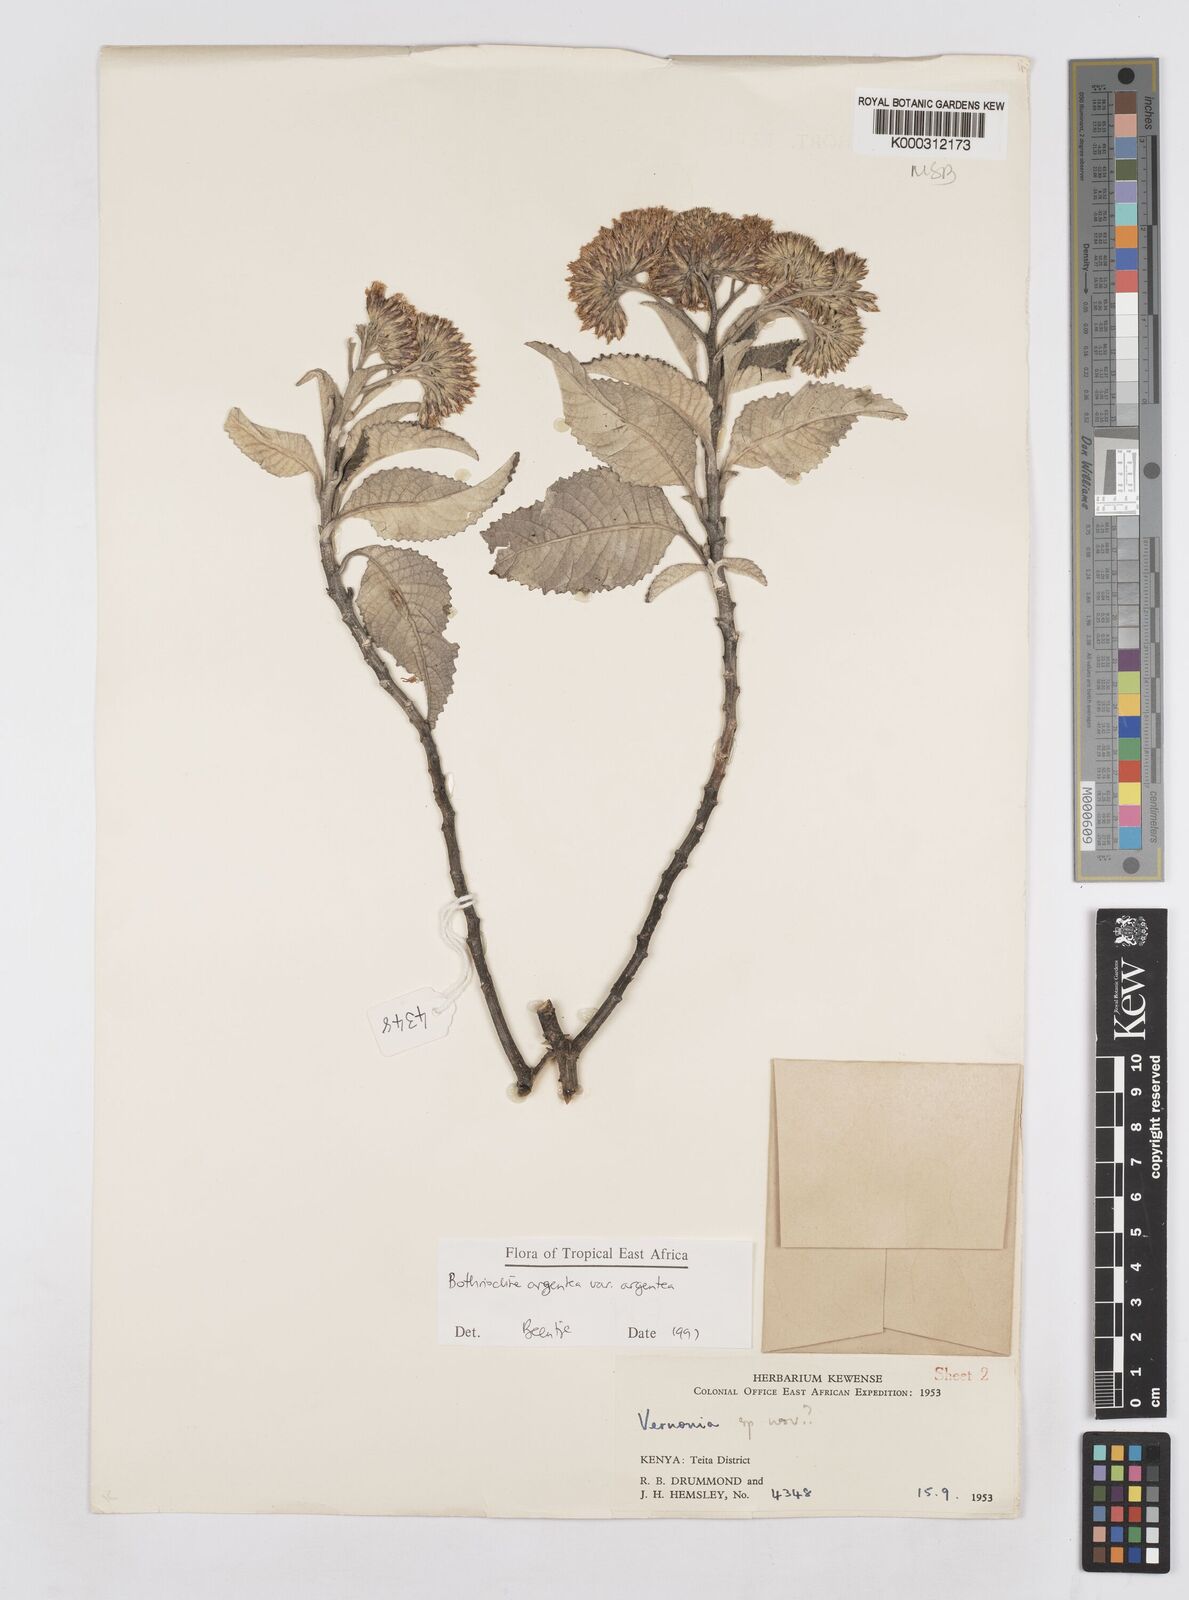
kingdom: Plantae
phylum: Tracheophyta
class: Magnoliopsida
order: Asterales
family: Asteraceae
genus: Bothriocline
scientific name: Bothriocline argentea
